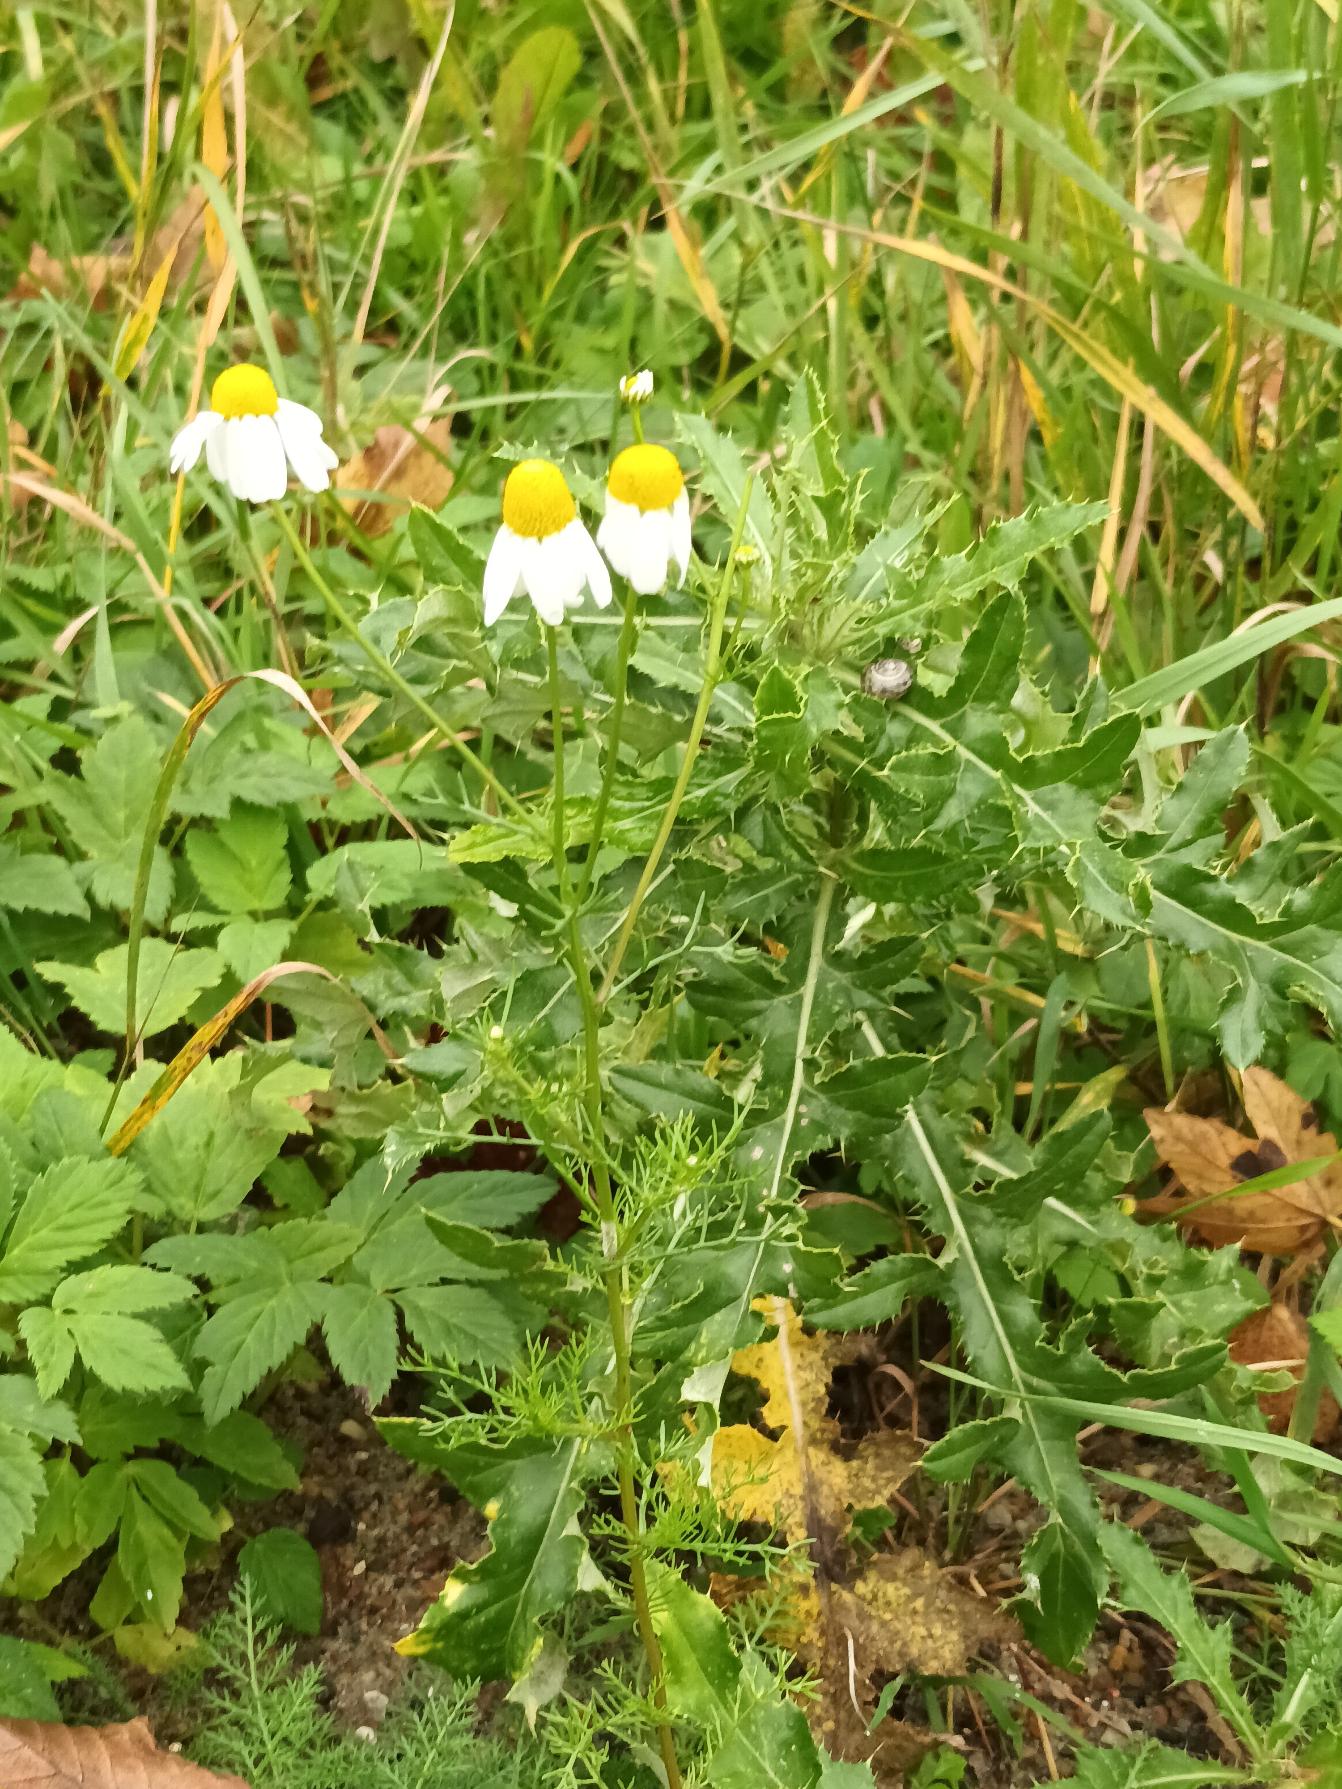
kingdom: Plantae
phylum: Tracheophyta
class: Magnoliopsida
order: Asterales
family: Asteraceae
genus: Matricaria
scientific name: Matricaria chamomilla
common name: Vellugtende kamille
